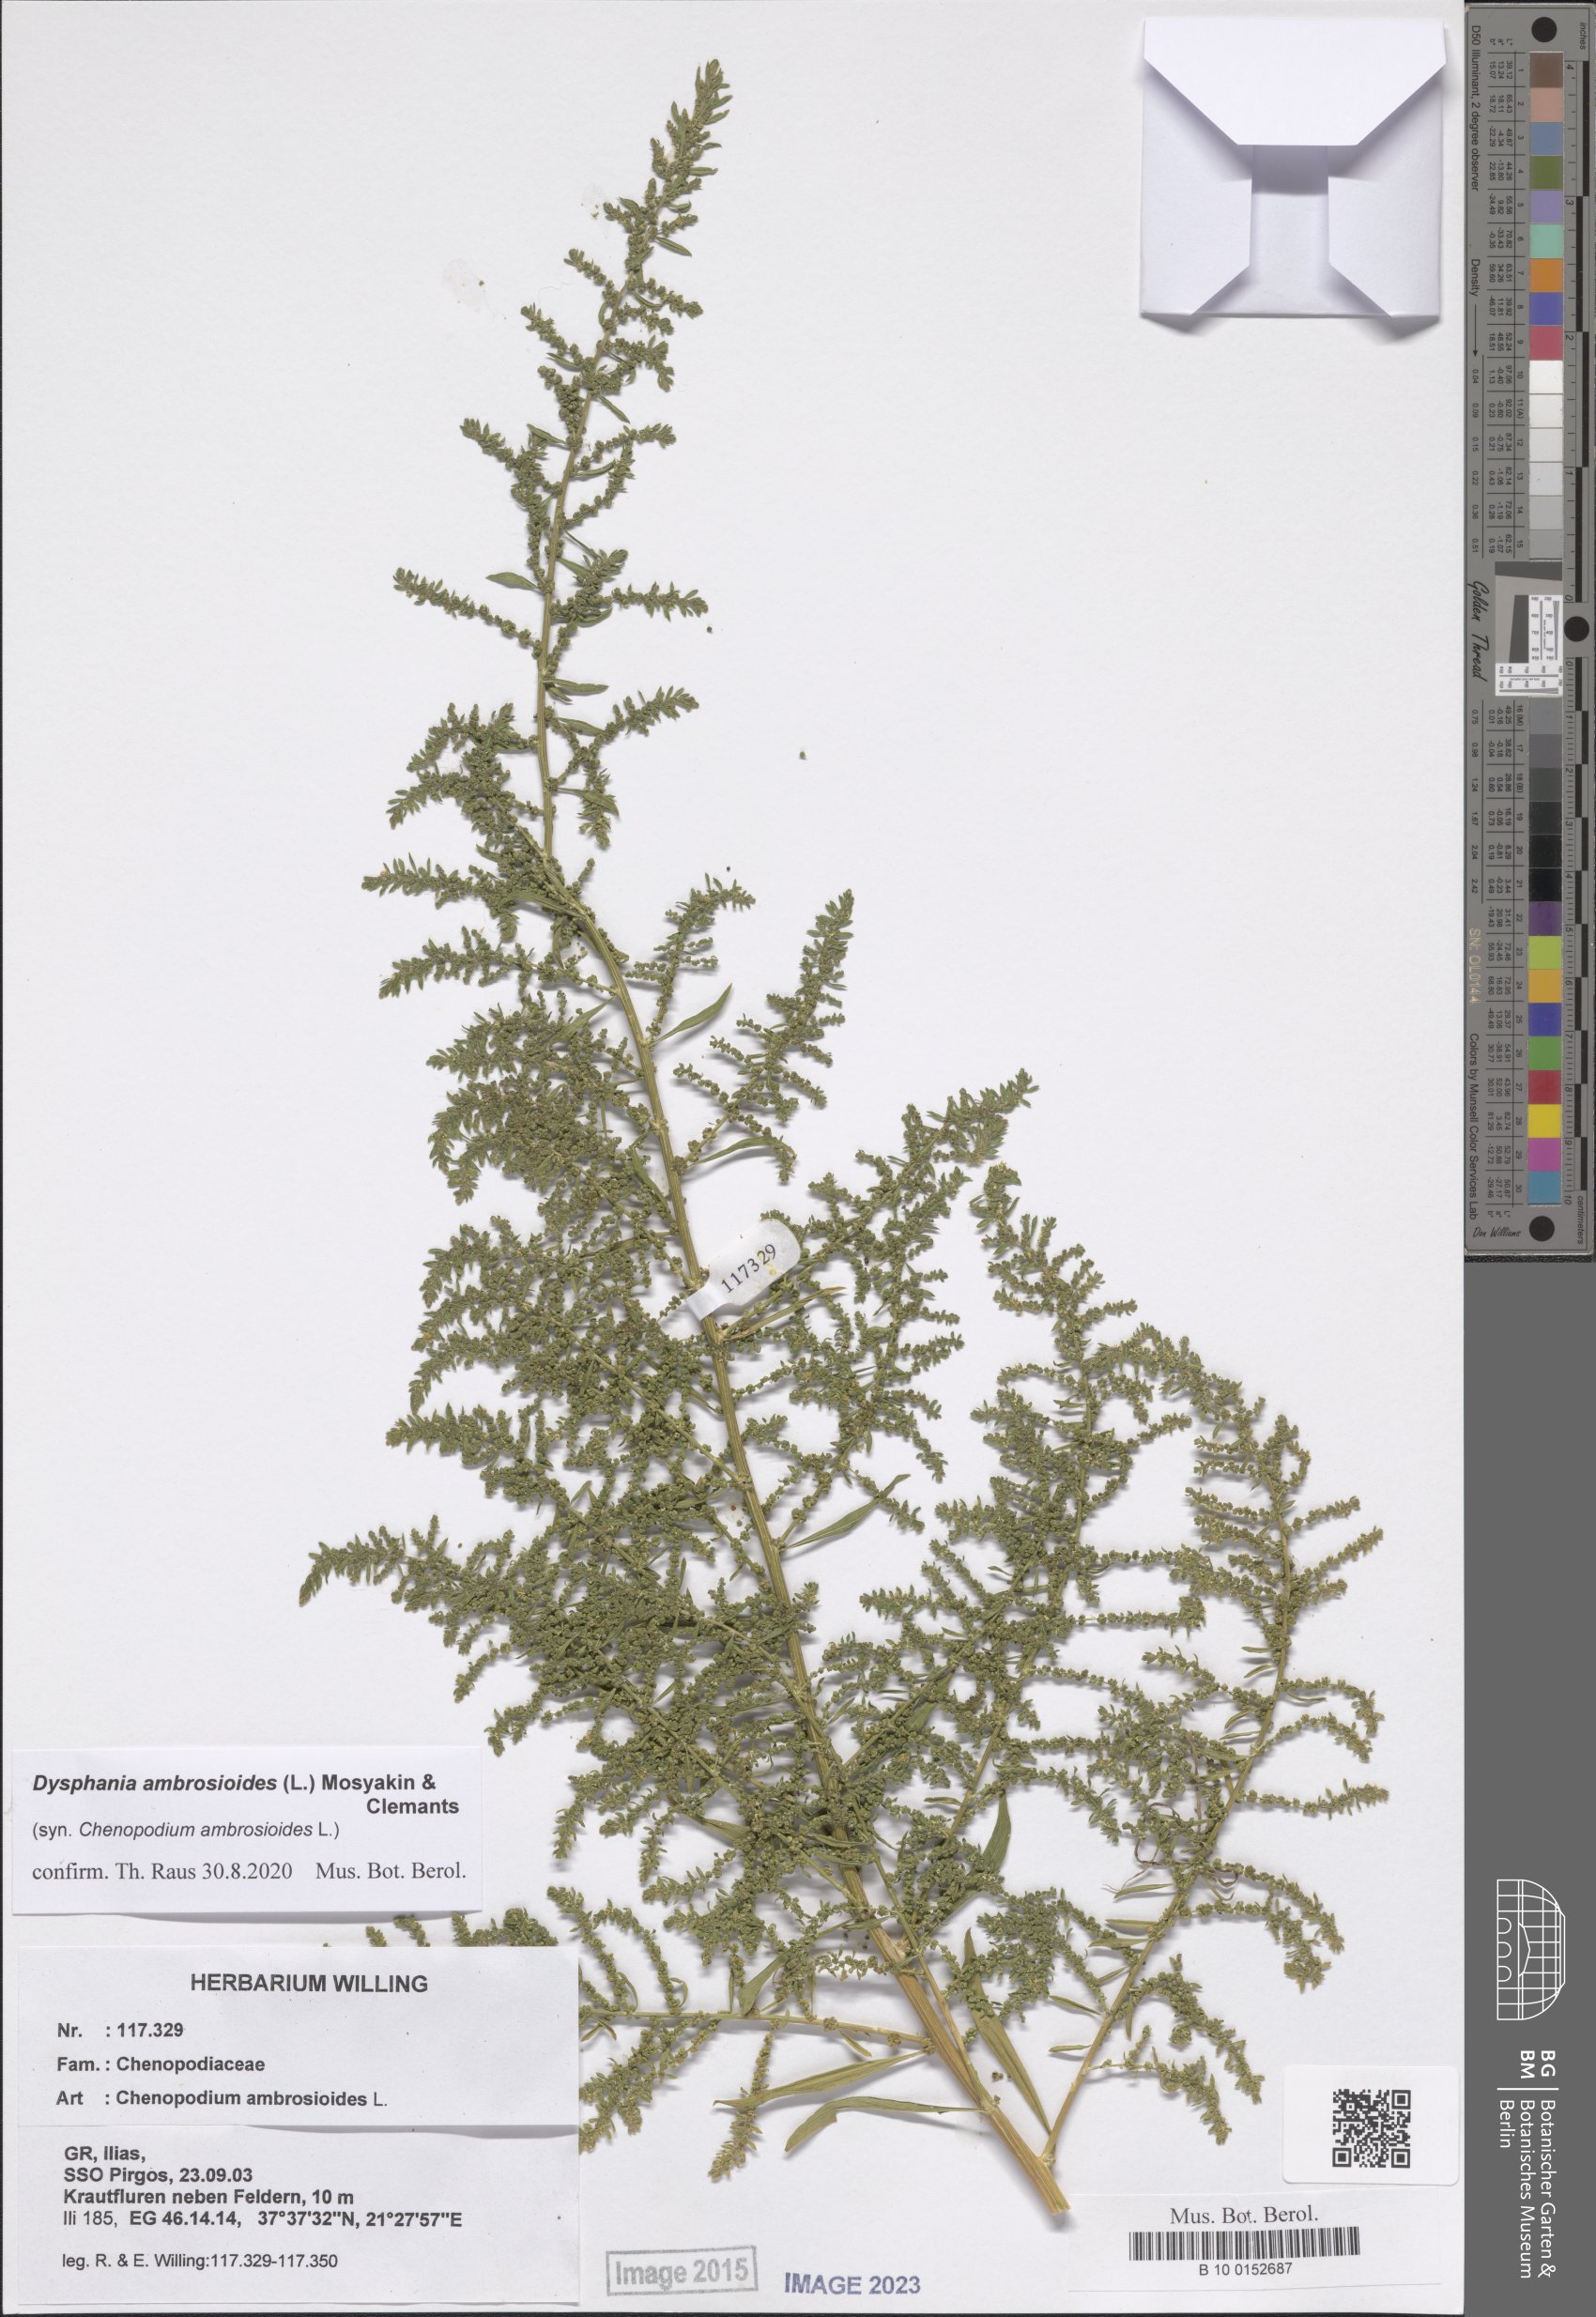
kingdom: Plantae
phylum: Tracheophyta
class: Magnoliopsida
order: Caryophyllales
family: Amaranthaceae
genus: Dysphania
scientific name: Dysphania ambrosioides
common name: Wormseed
